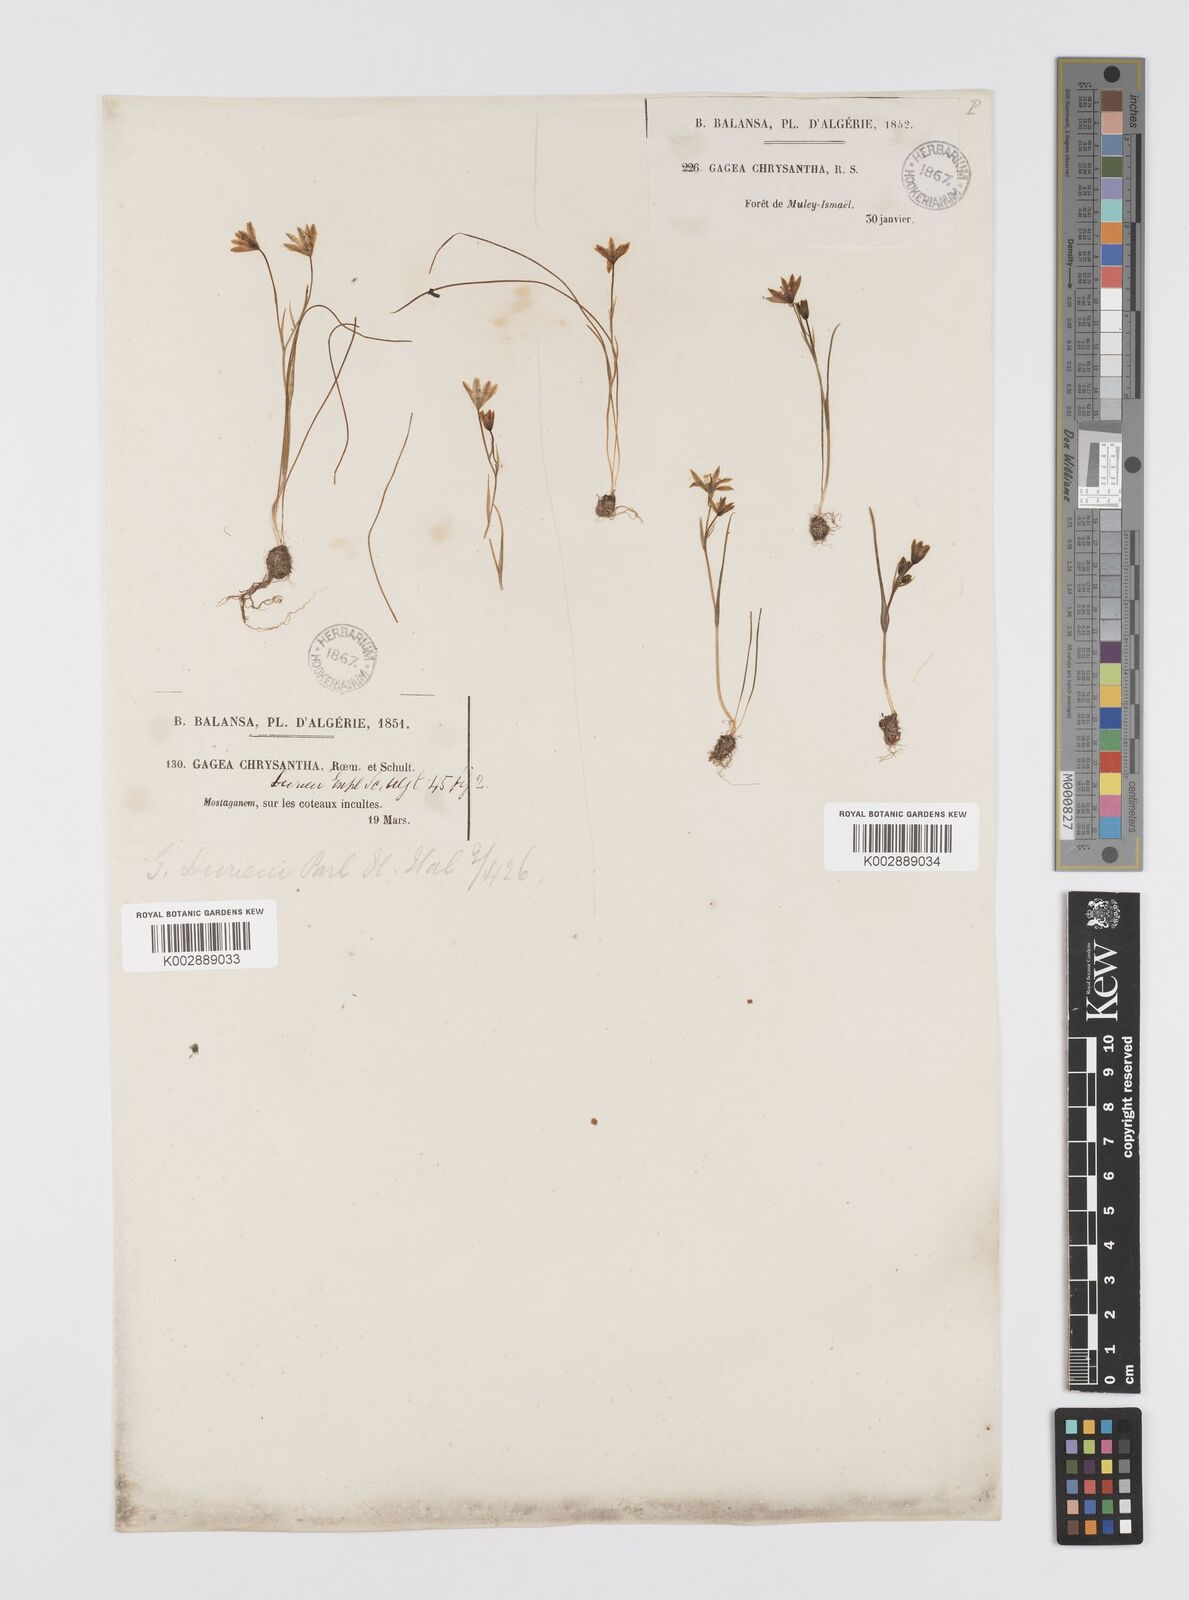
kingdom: Plantae
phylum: Tracheophyta
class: Liliopsida
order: Liliales
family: Liliaceae
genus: Gagea
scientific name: Gagea durieui
